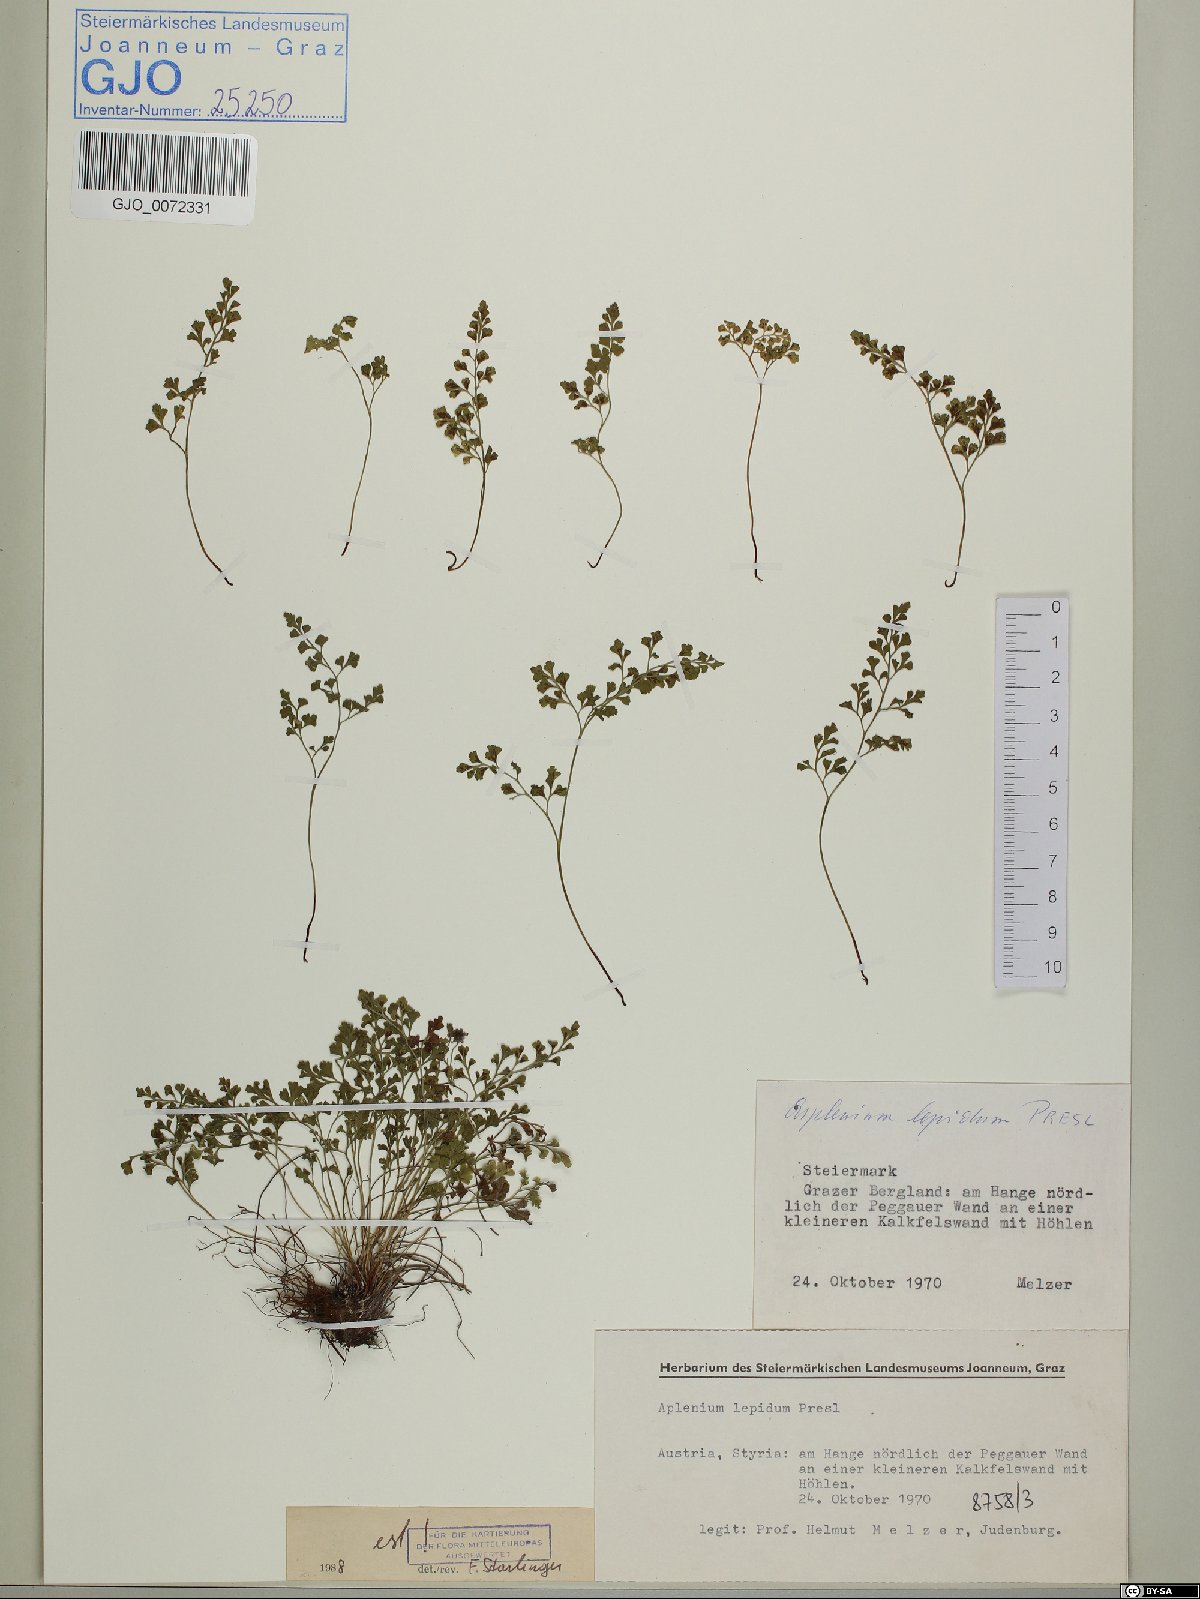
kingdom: Plantae
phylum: Tracheophyta
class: Polypodiopsida
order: Polypodiales
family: Aspleniaceae
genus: Asplenium
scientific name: Asplenium lepidum
